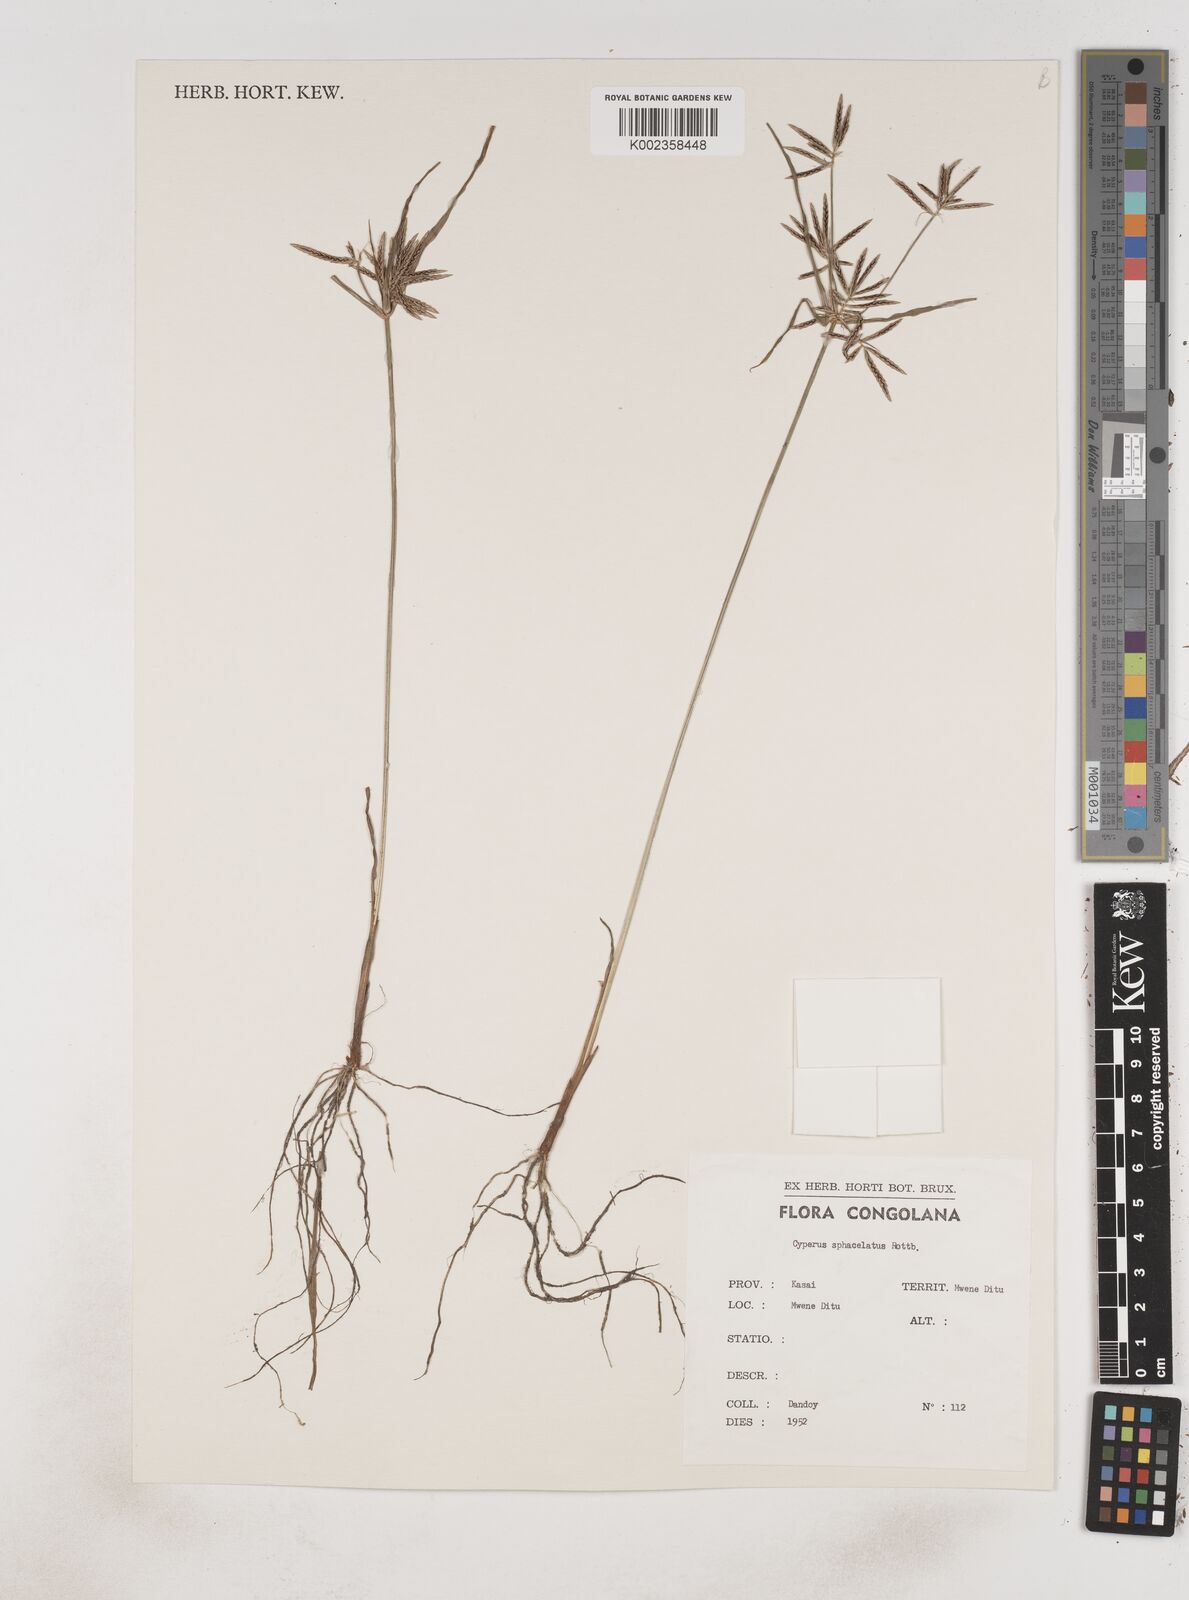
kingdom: Plantae
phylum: Tracheophyta
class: Liliopsida
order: Poales
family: Cyperaceae
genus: Cyperus
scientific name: Cyperus sphacelatus
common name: Roadside flatsedge
